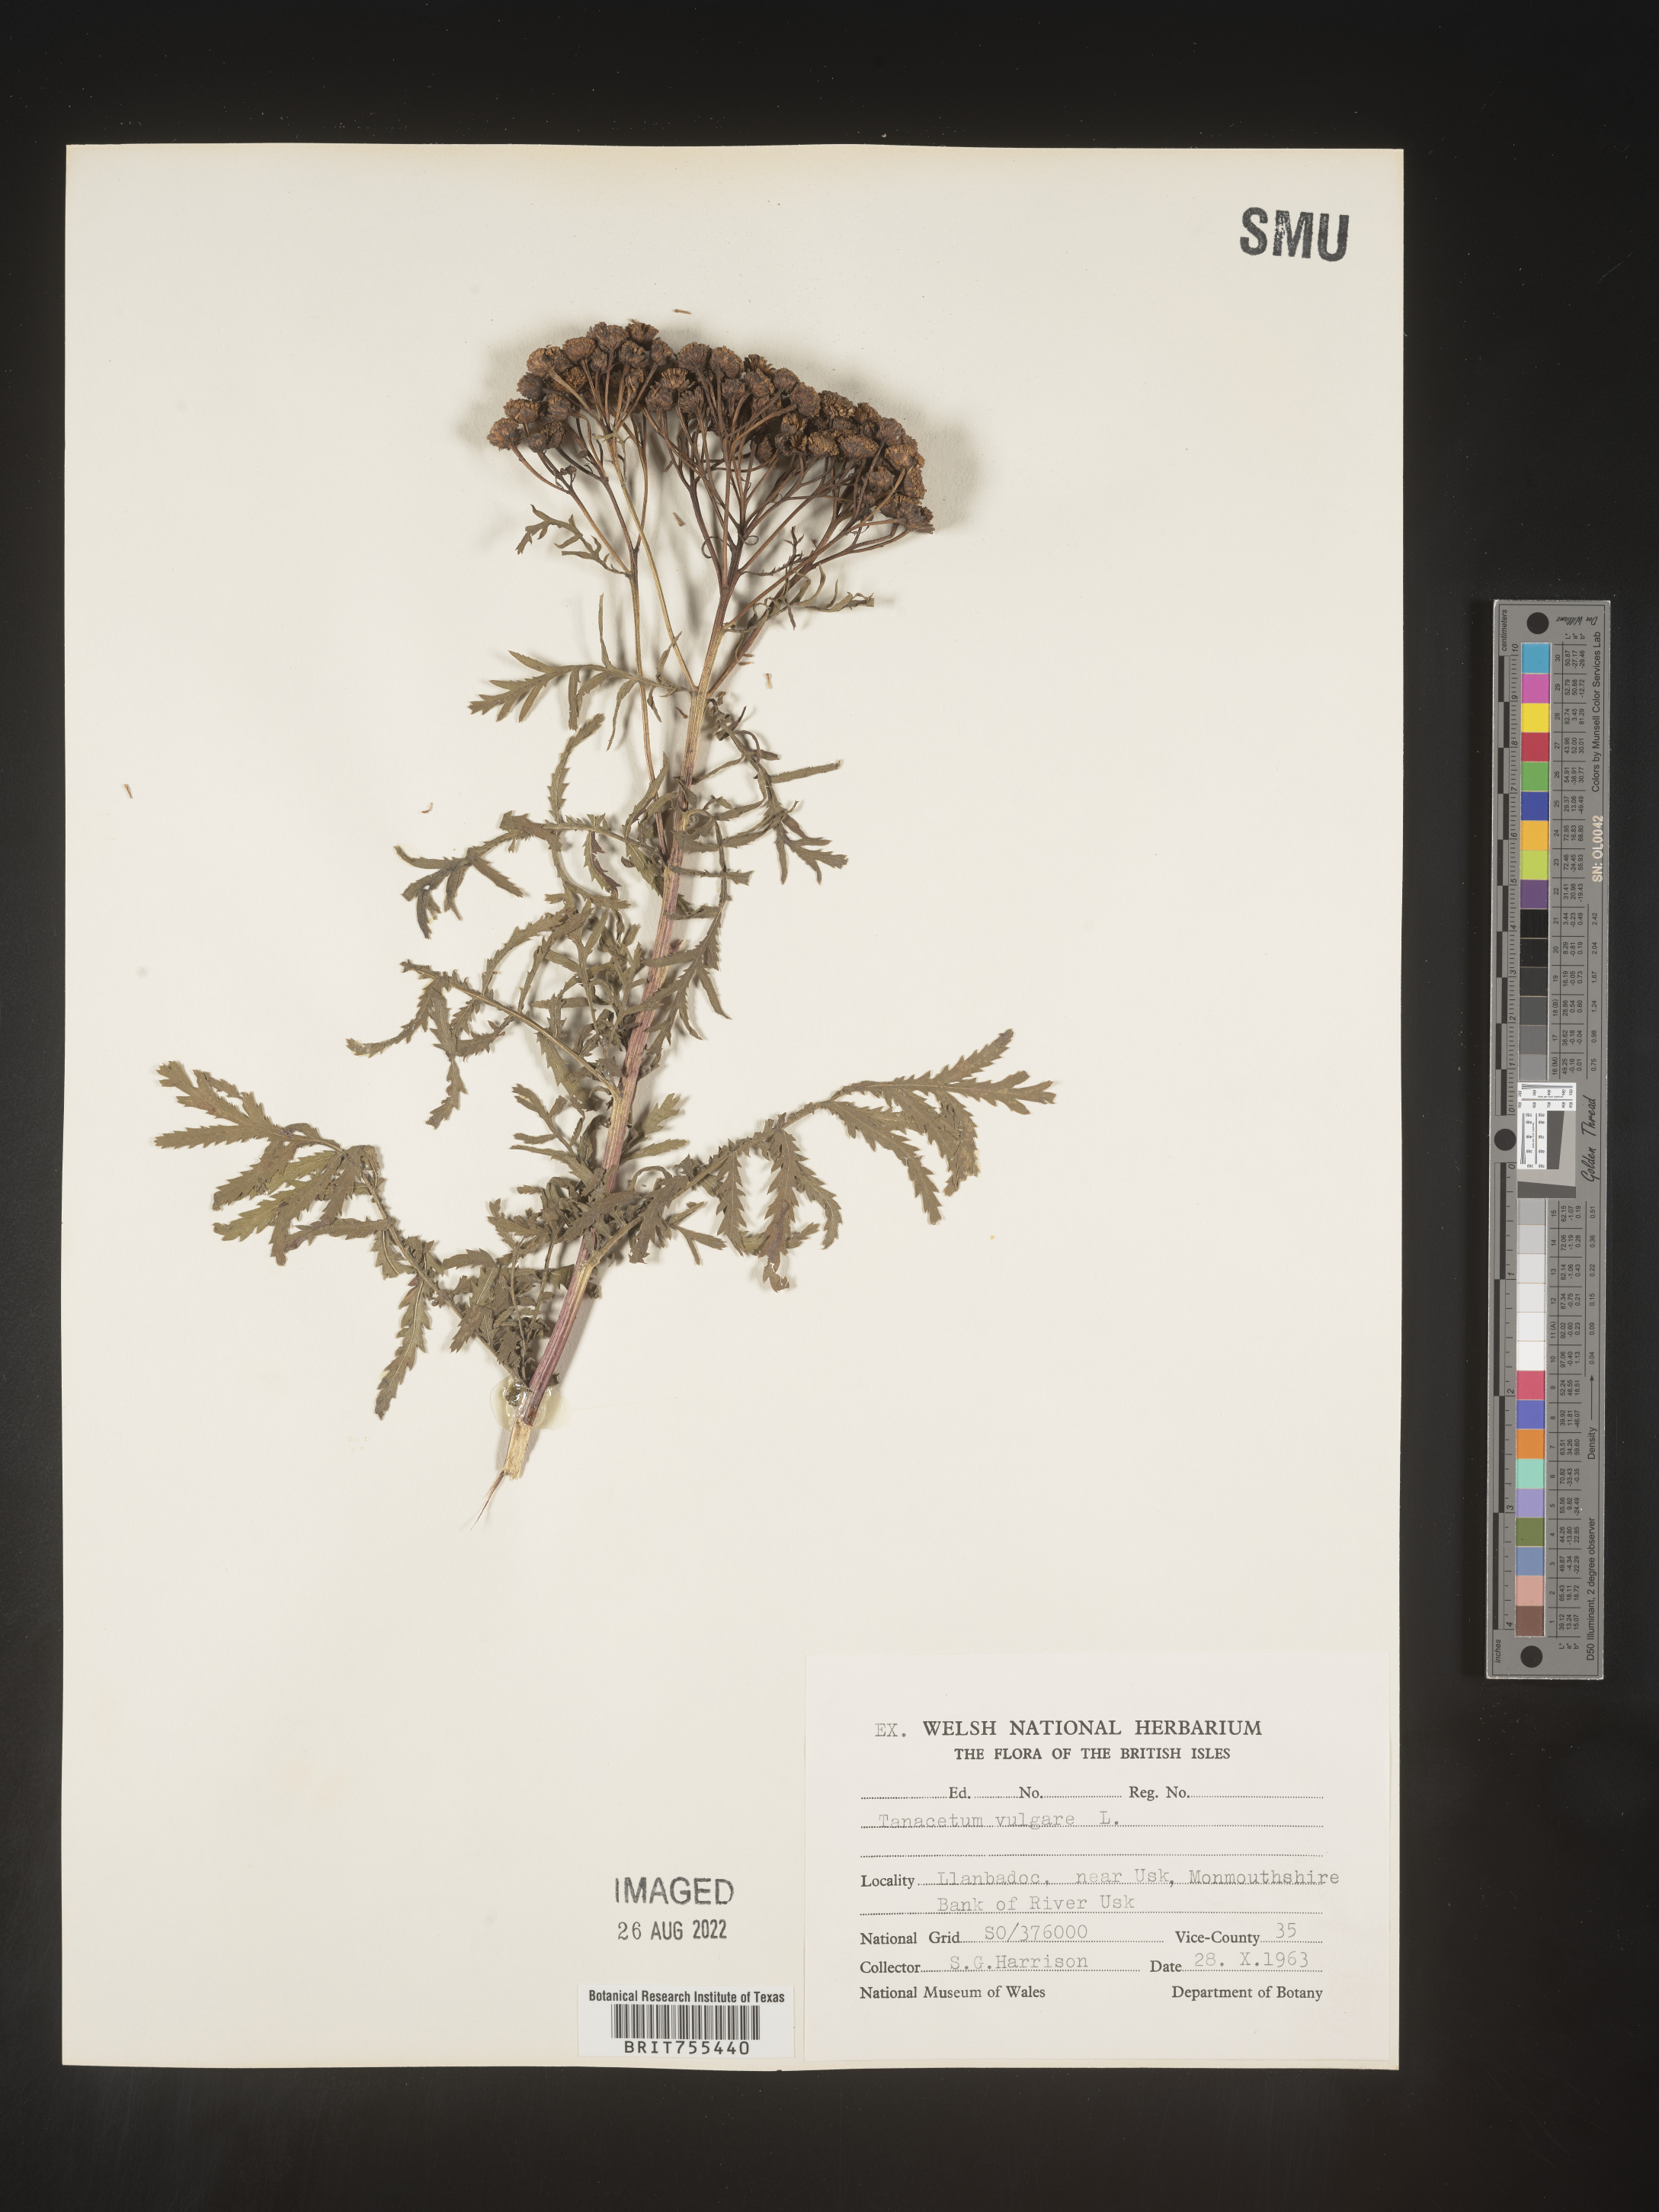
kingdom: Plantae
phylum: Tracheophyta
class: Magnoliopsida
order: Asterales
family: Asteraceae
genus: Tanacetum
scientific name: Tanacetum
